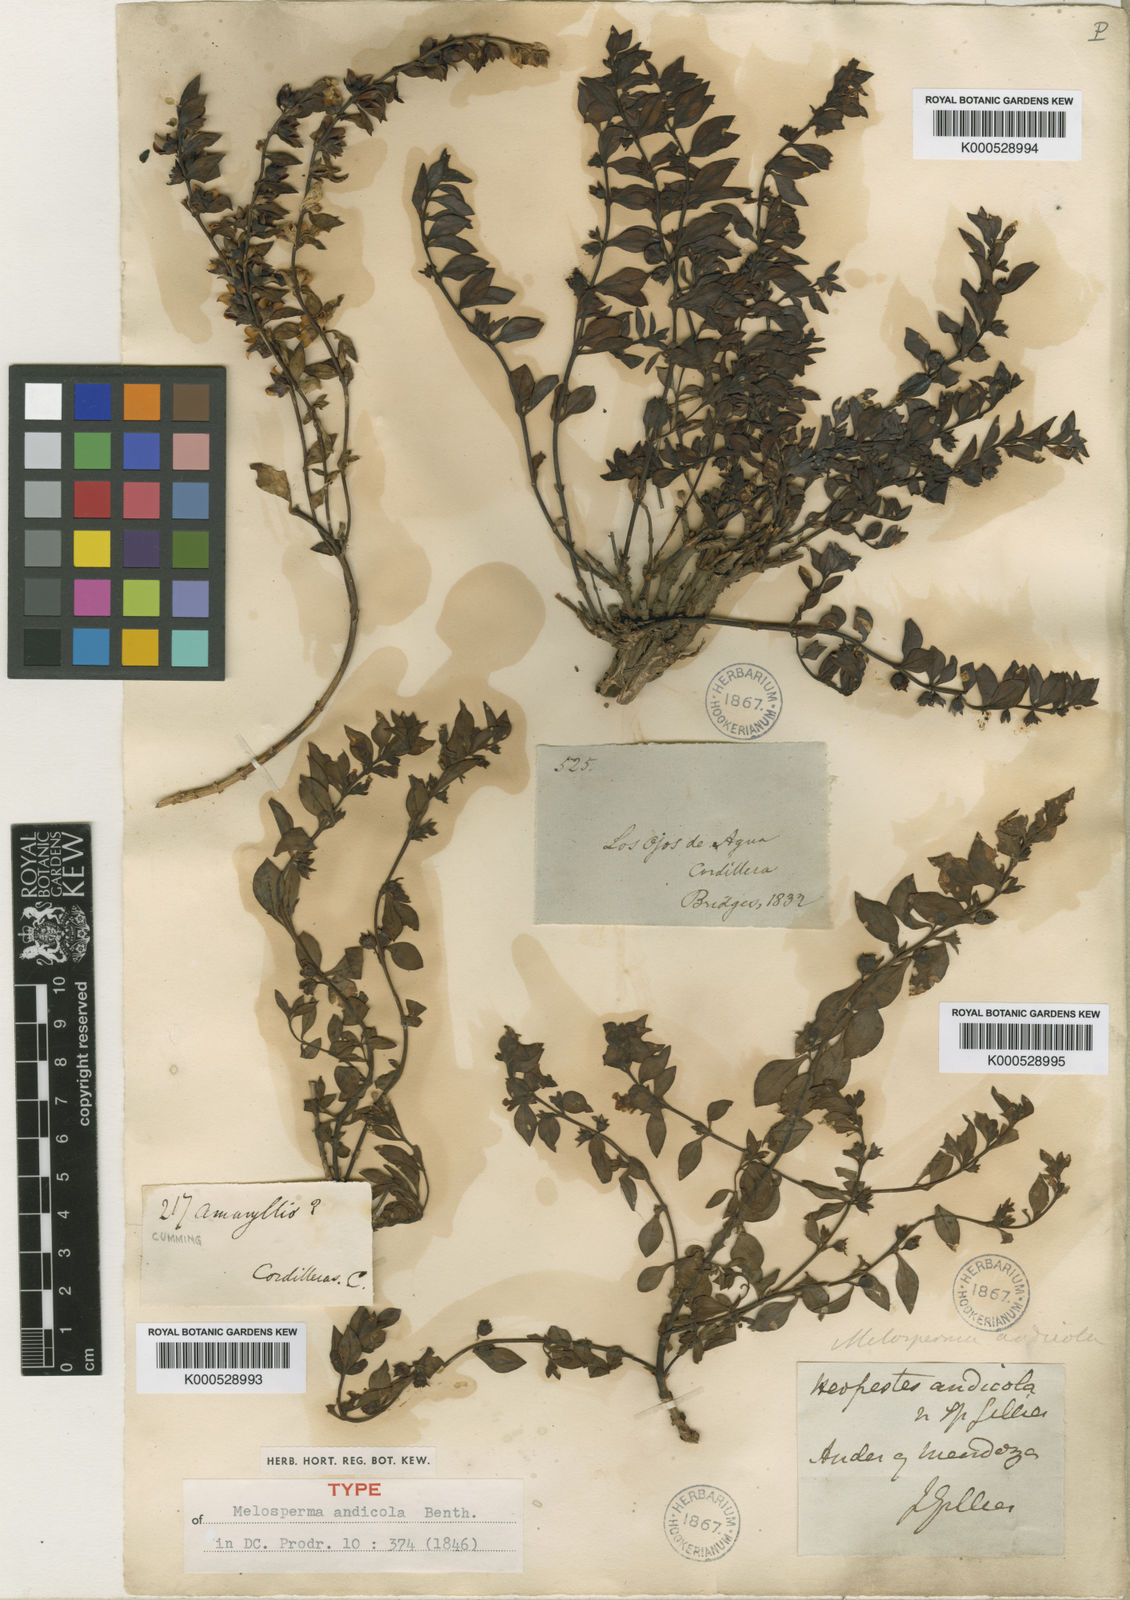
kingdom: Plantae
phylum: Tracheophyta
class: Magnoliopsida
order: Lamiales
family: Plantaginaceae
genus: Melosperma
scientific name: Melosperma andicola
